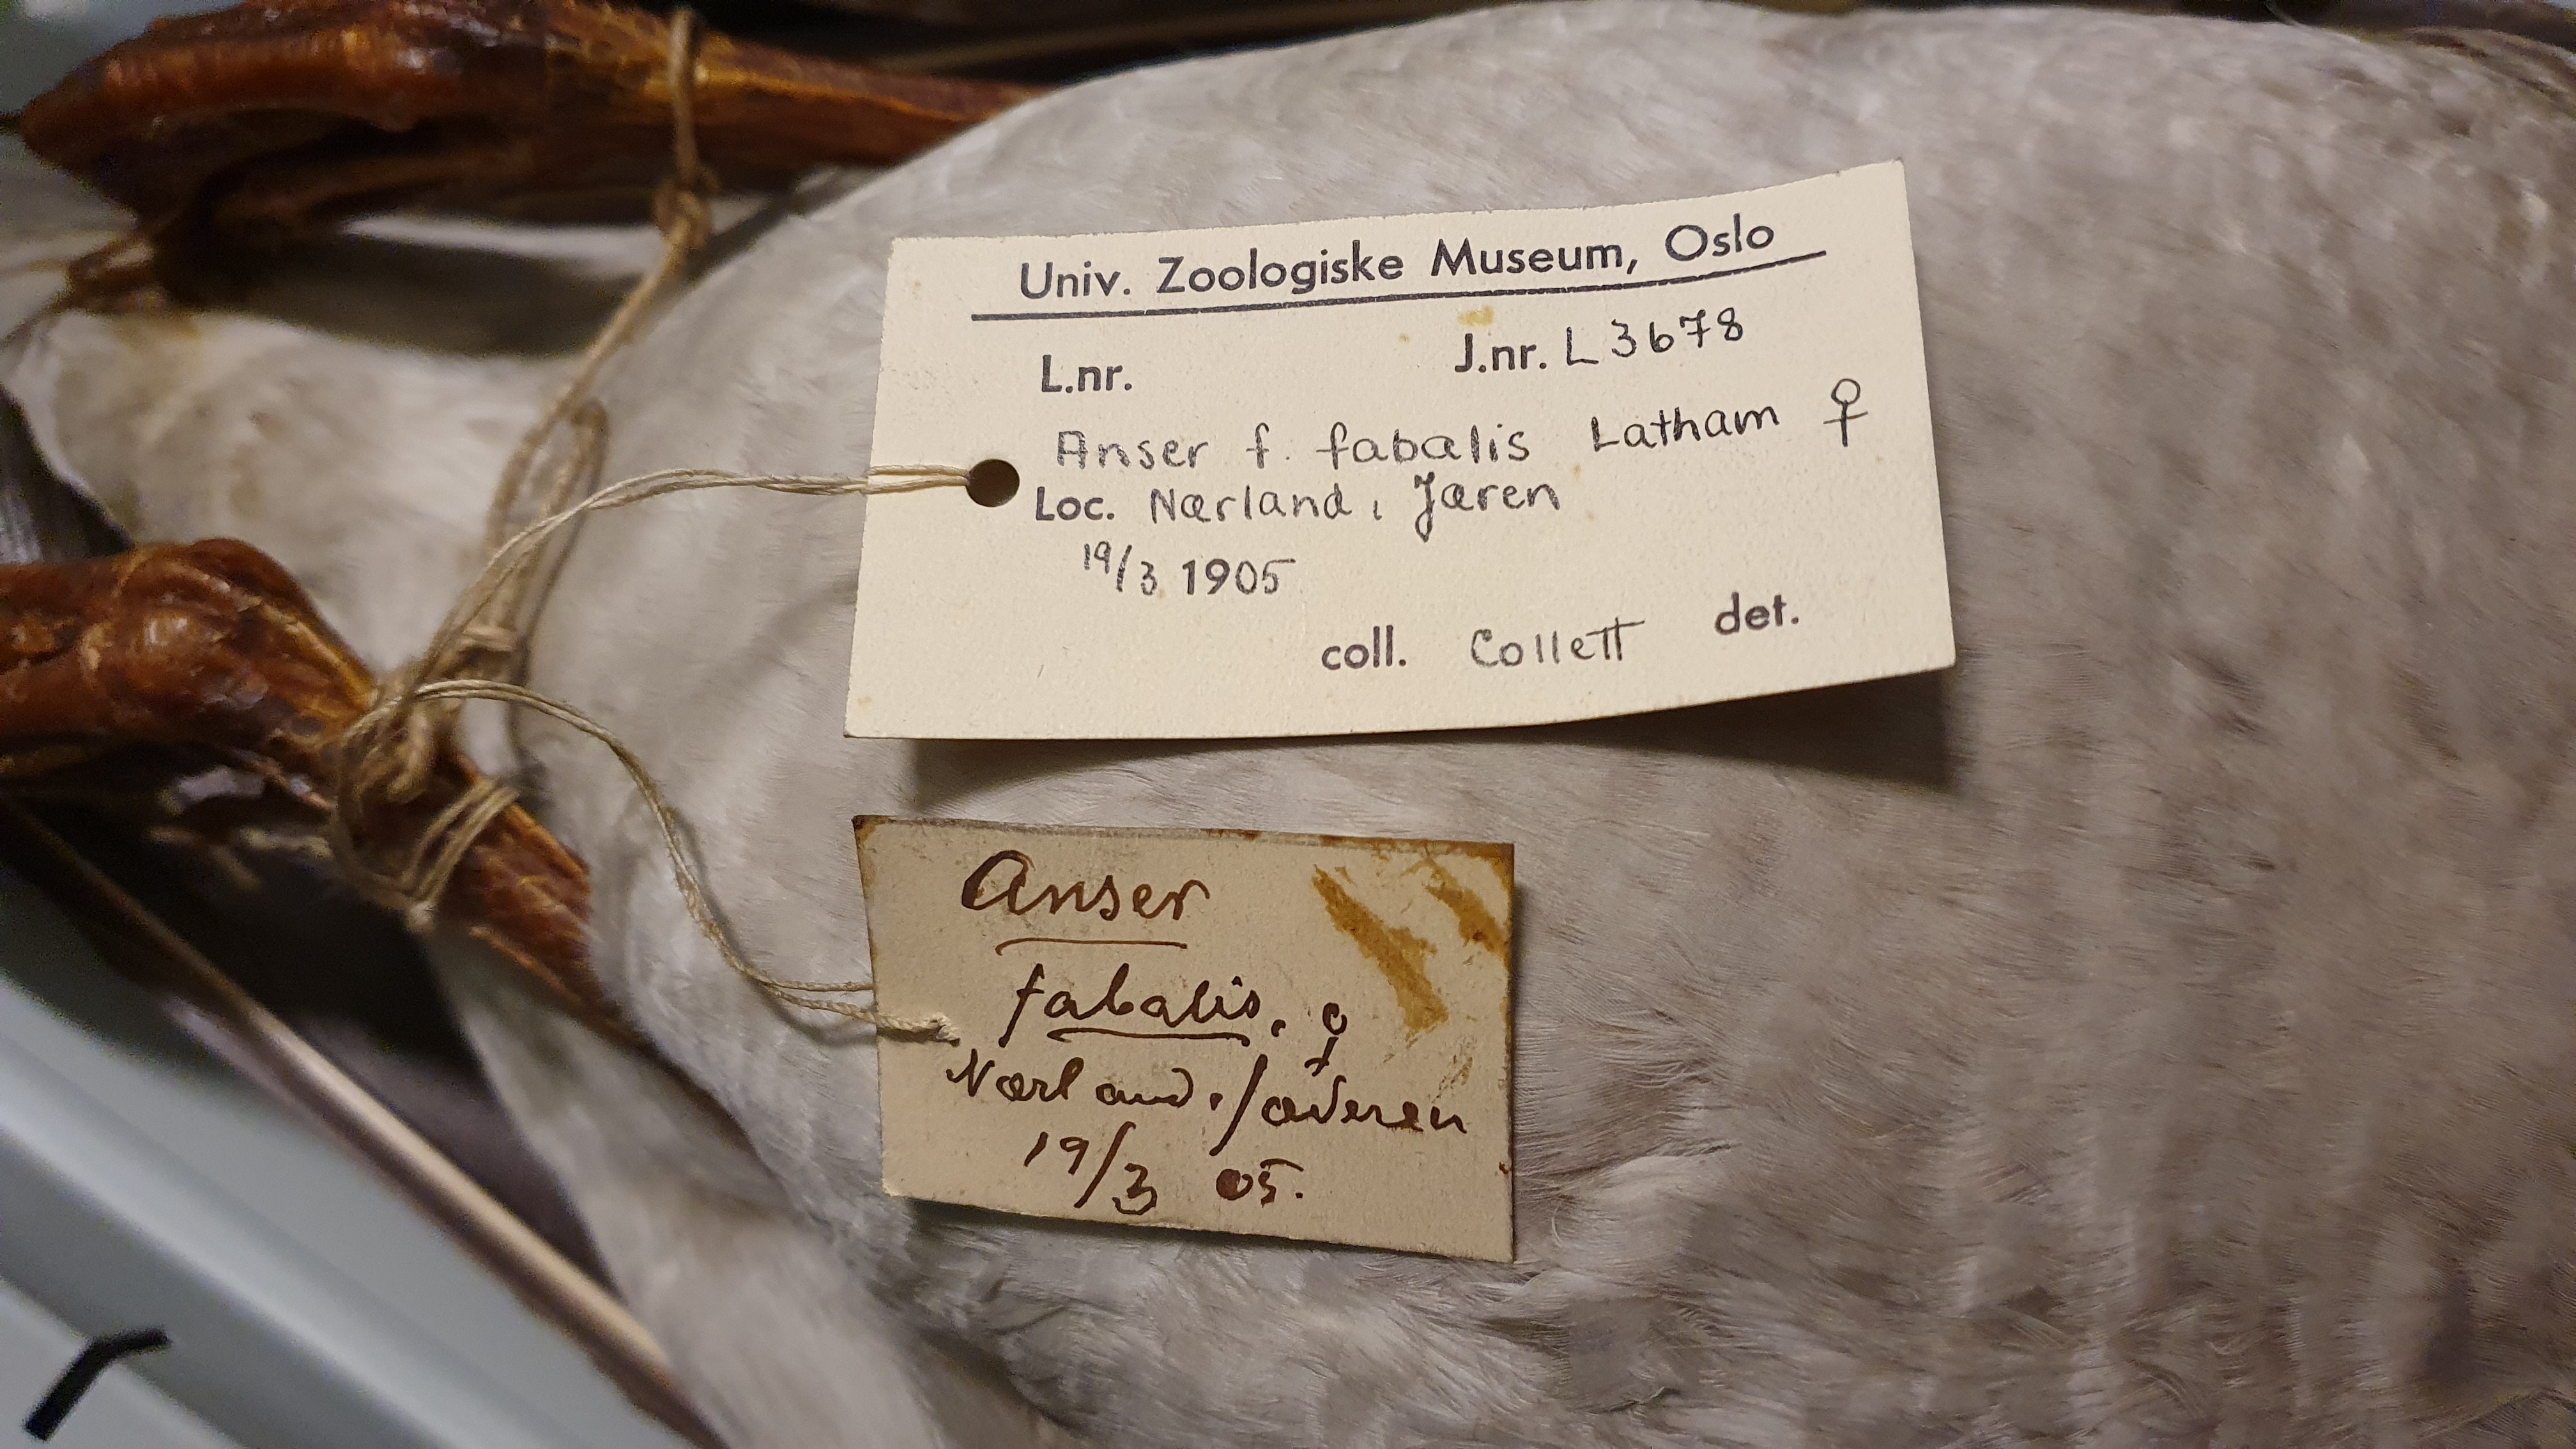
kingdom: Animalia
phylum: Chordata
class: Aves
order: Anseriformes
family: Anatidae
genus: Anser
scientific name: Anser fabalis
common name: Bean goose
